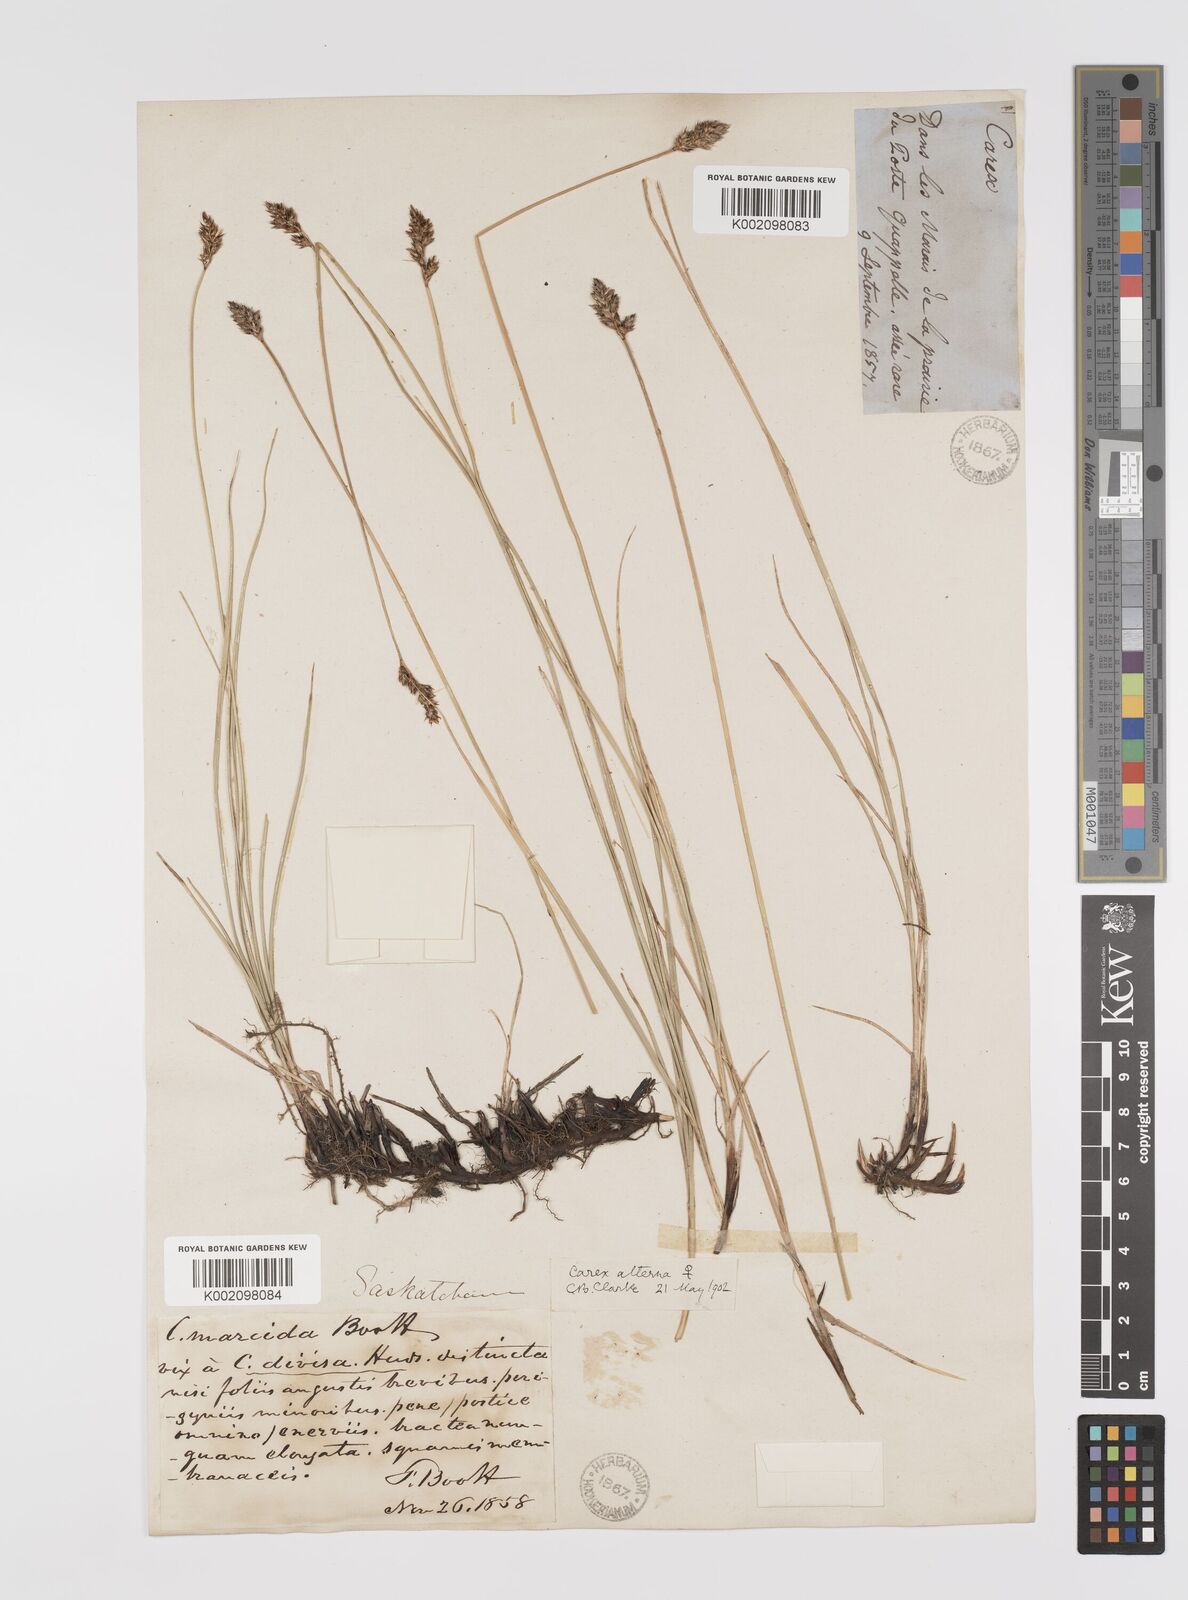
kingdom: Plantae
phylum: Tracheophyta
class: Liliopsida
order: Poales
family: Cyperaceae
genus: Carex
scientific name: Carex praegracilis
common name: Black creeper sedge
